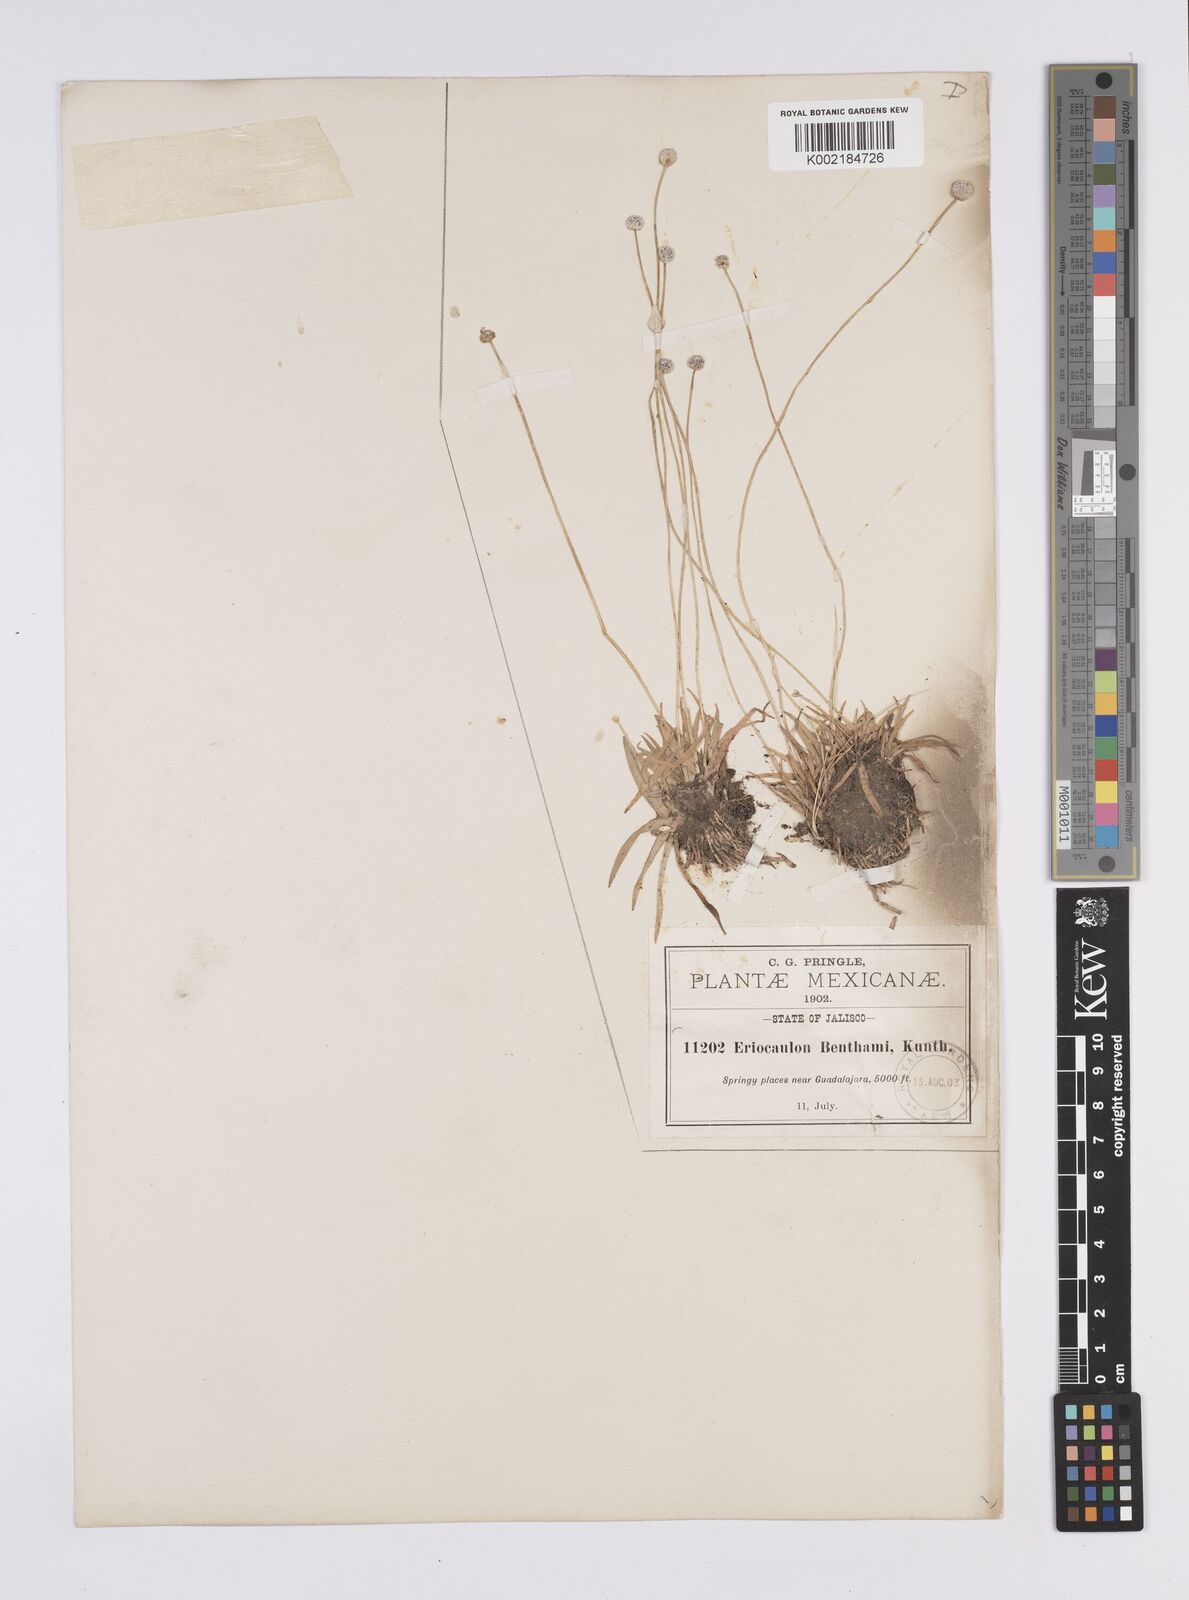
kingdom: Plantae
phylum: Tracheophyta
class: Liliopsida
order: Poales
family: Eriocaulaceae
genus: Eriocaulon
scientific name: Eriocaulon benthamii
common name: Bentham's pipewort
